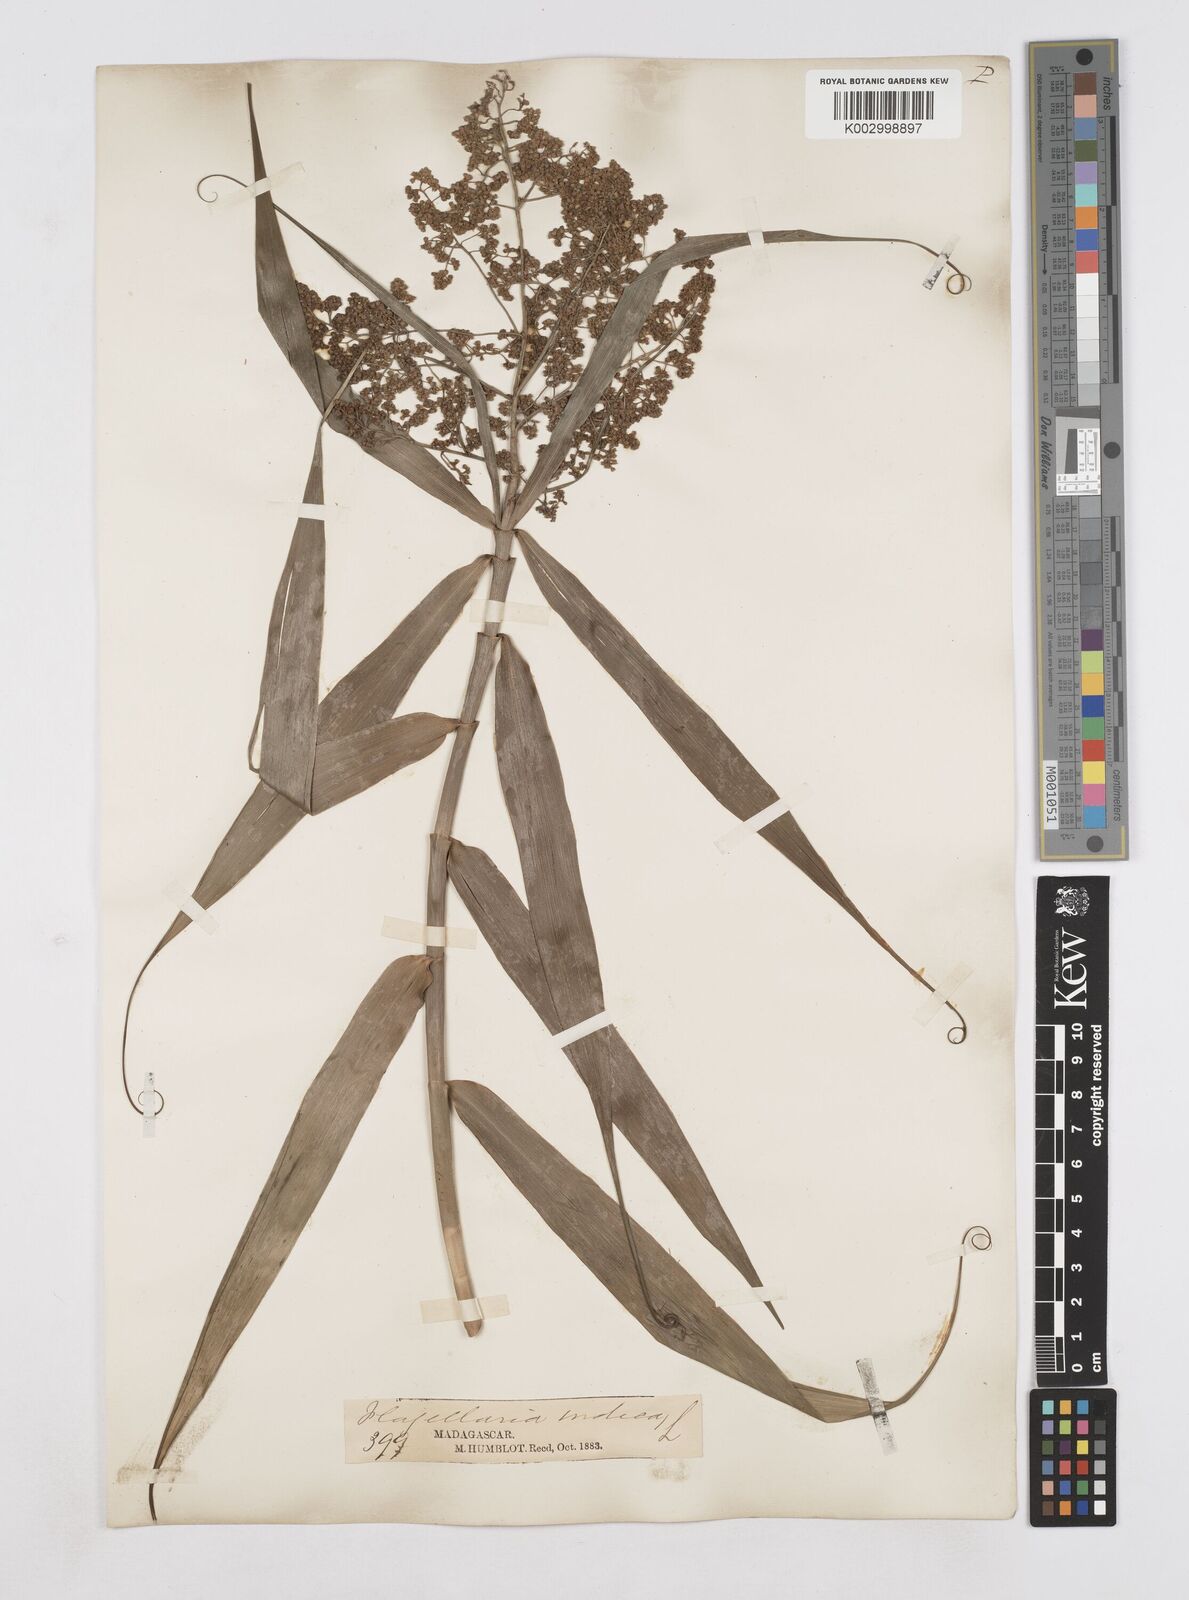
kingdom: Plantae
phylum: Tracheophyta
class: Liliopsida
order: Poales
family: Flagellariaceae
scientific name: Flagellariaceae
